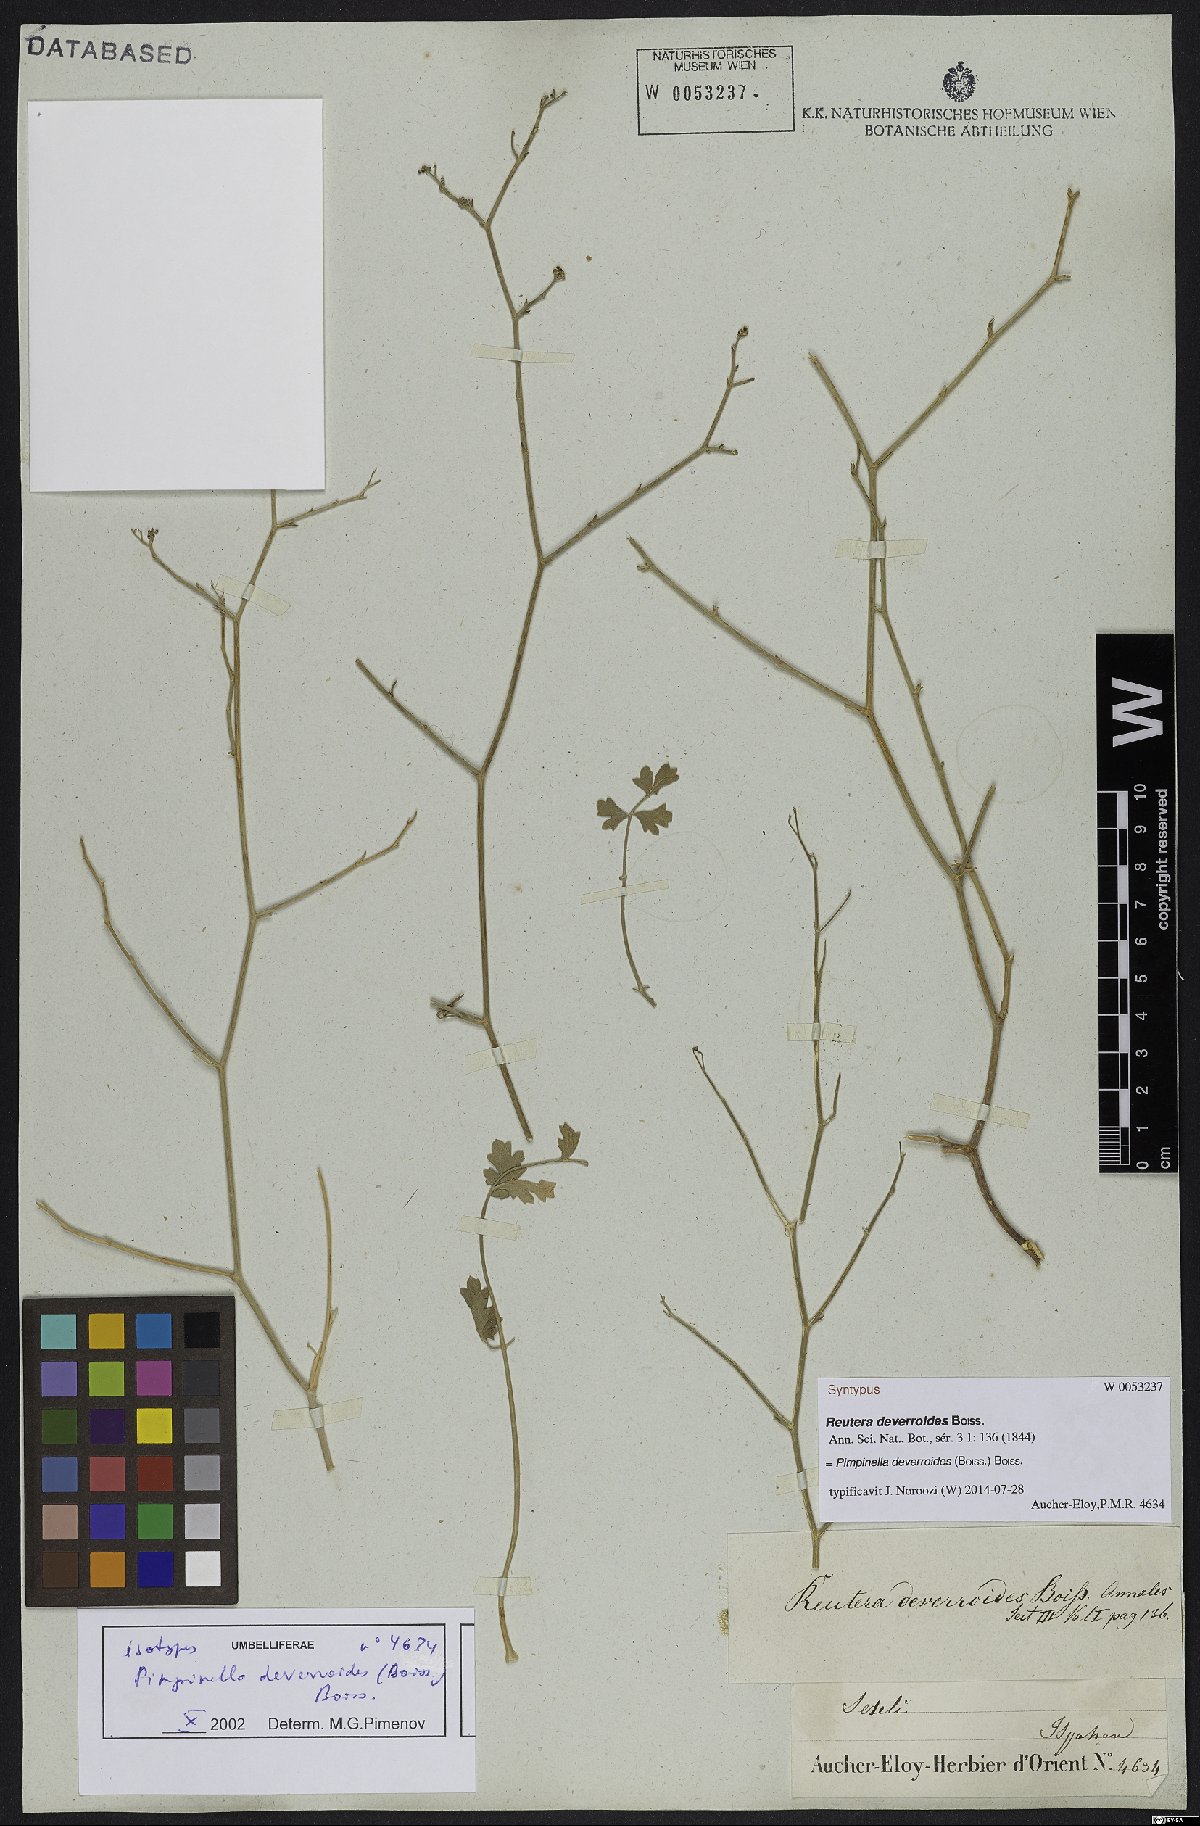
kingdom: Plantae
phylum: Tracheophyta
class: Magnoliopsida
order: Apiales
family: Apiaceae
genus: Pimpinella
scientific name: Pimpinella deverroides
